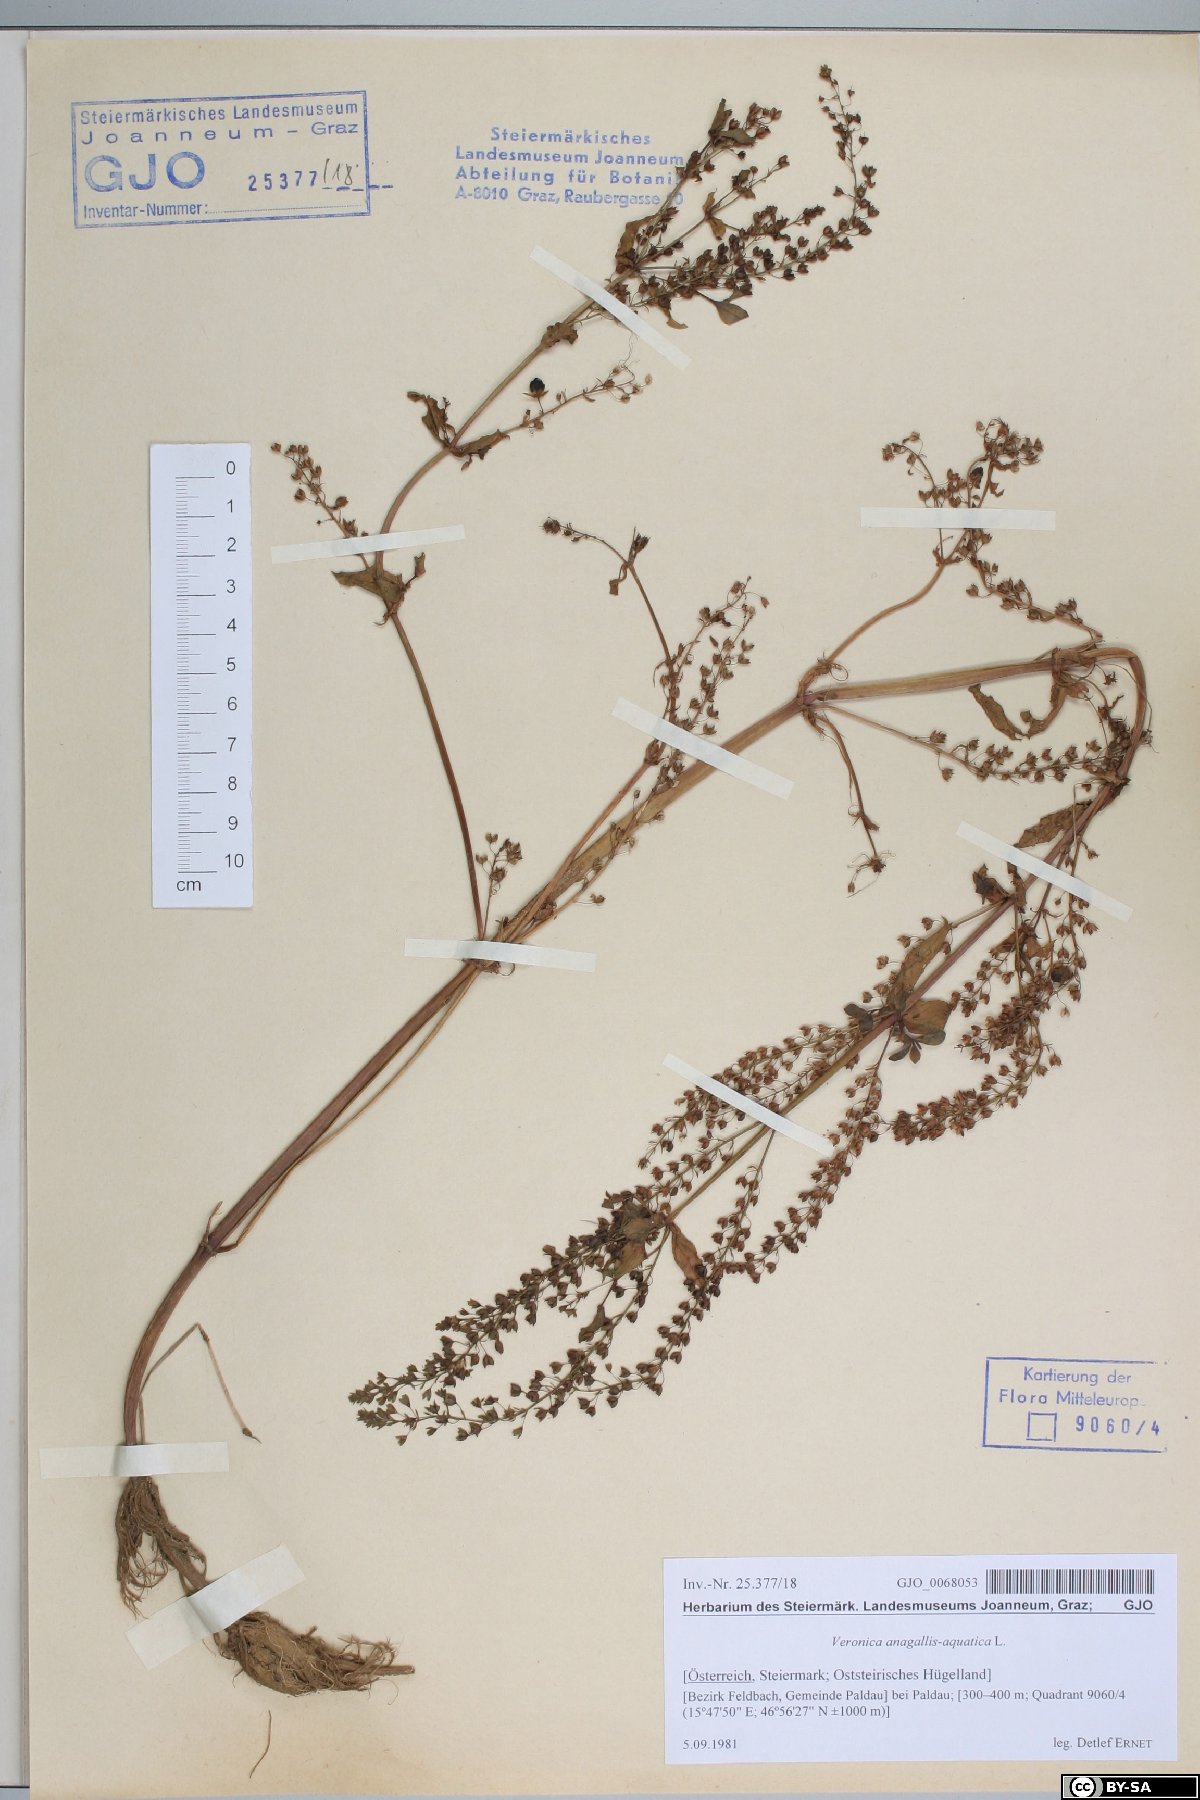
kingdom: Plantae
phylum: Tracheophyta
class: Magnoliopsida
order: Lamiales
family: Plantaginaceae
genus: Veronica
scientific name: Veronica anagallis-aquatica
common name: Water speedwell
